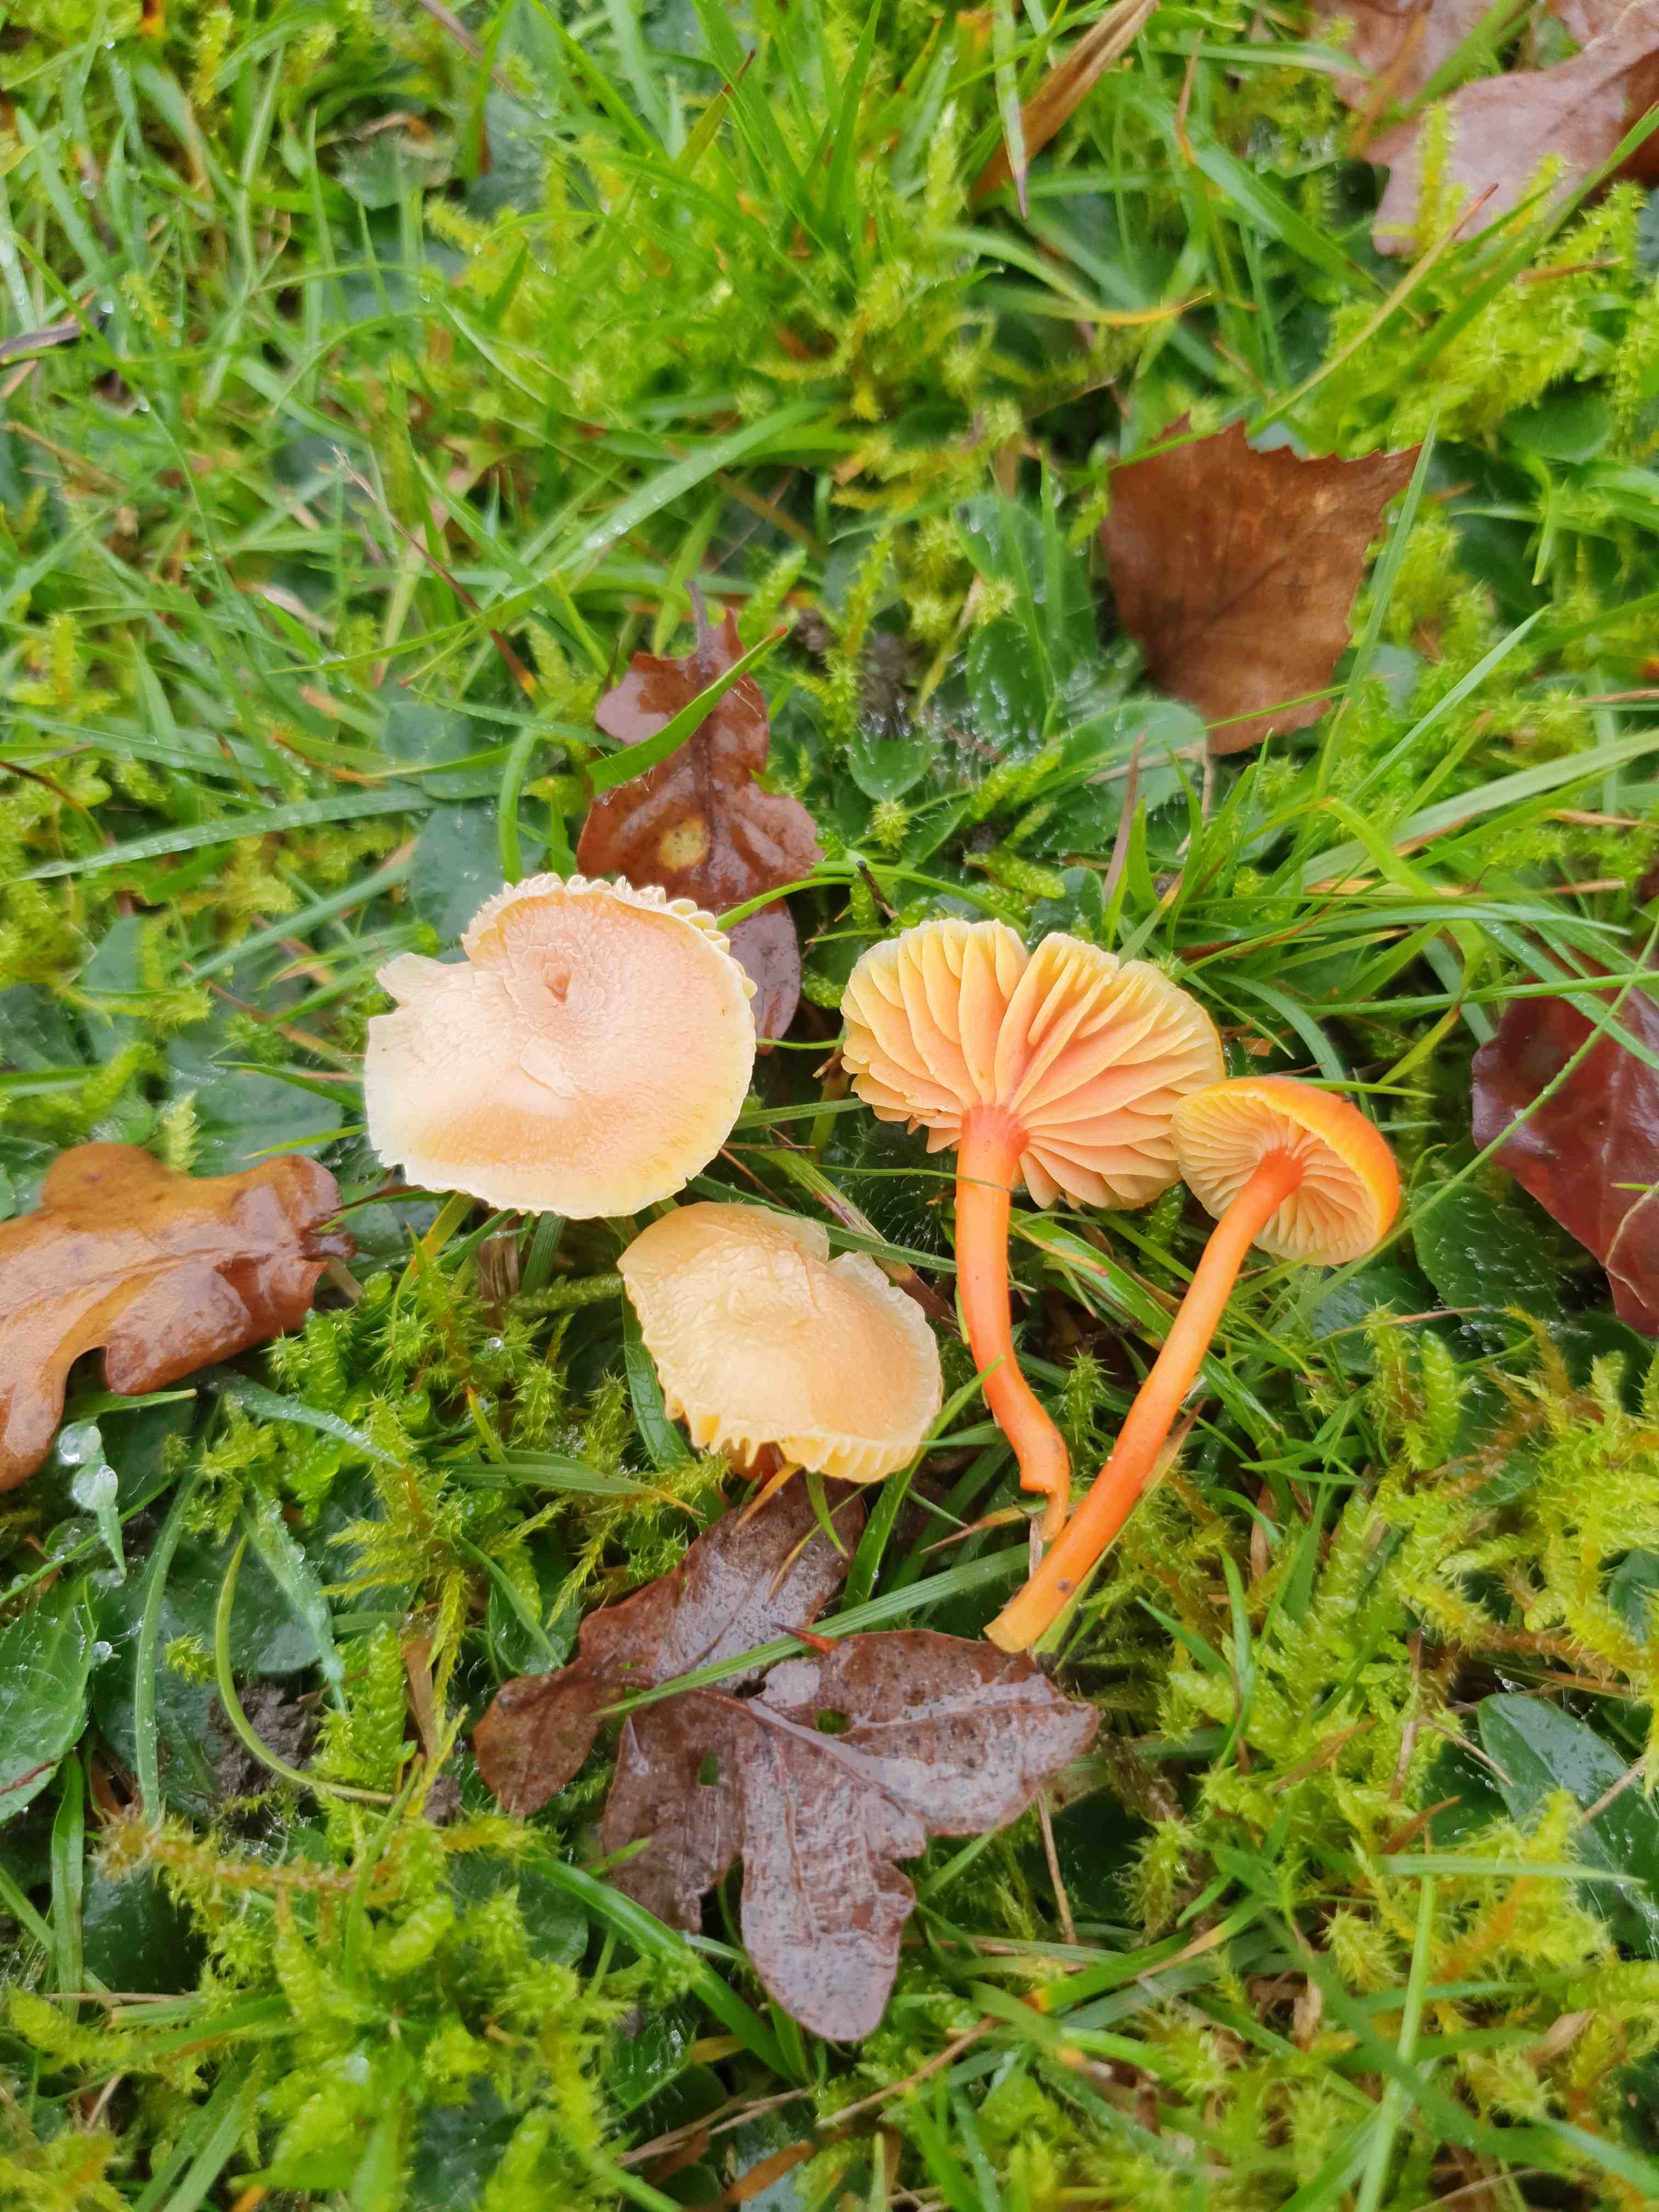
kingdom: Fungi
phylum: Basidiomycota
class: Agaricomycetes
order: Agaricales
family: Hygrophoraceae
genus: Hygrocybe
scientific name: Hygrocybe miniata
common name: mønje-vokshat
